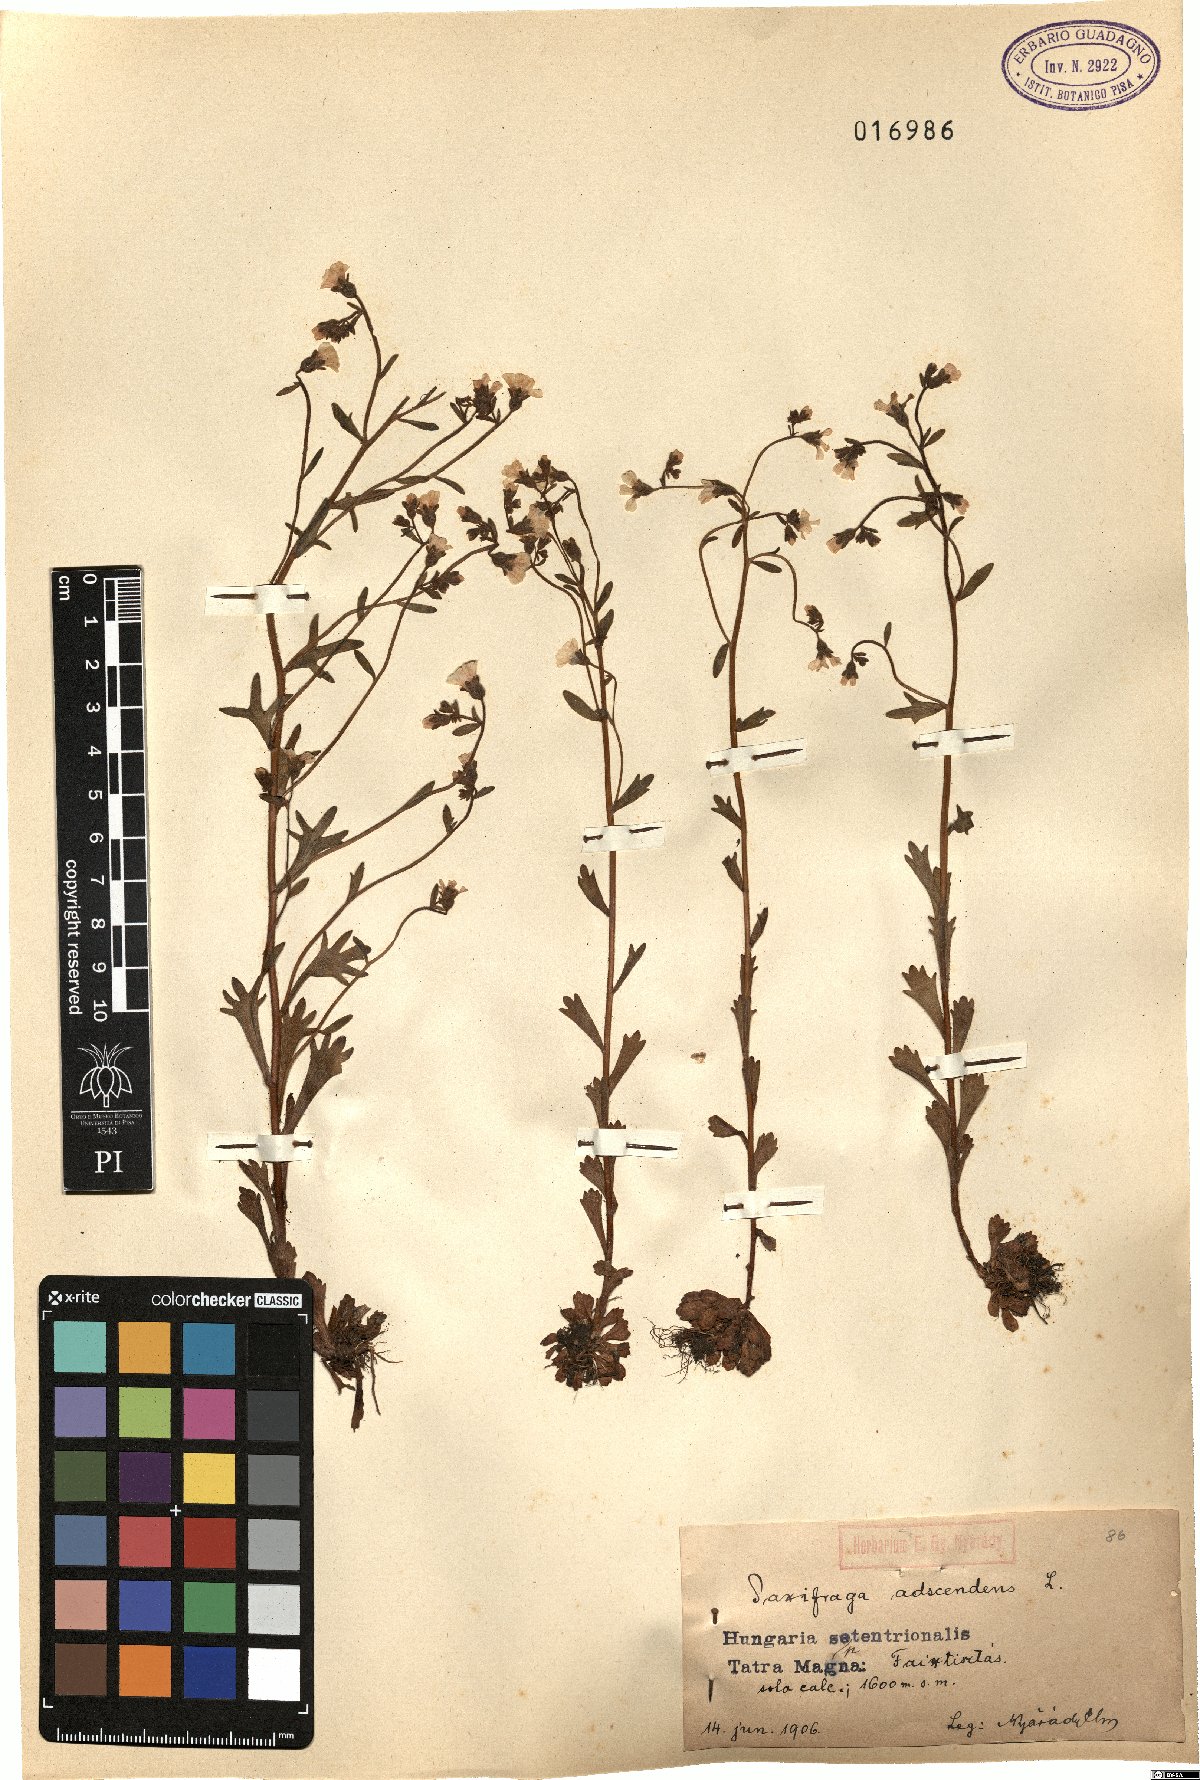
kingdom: Plantae
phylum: Tracheophyta
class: Magnoliopsida
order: Saxifragales
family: Saxifragaceae
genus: Saxifraga
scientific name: Saxifraga adscendens
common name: Ascending saxifrage
